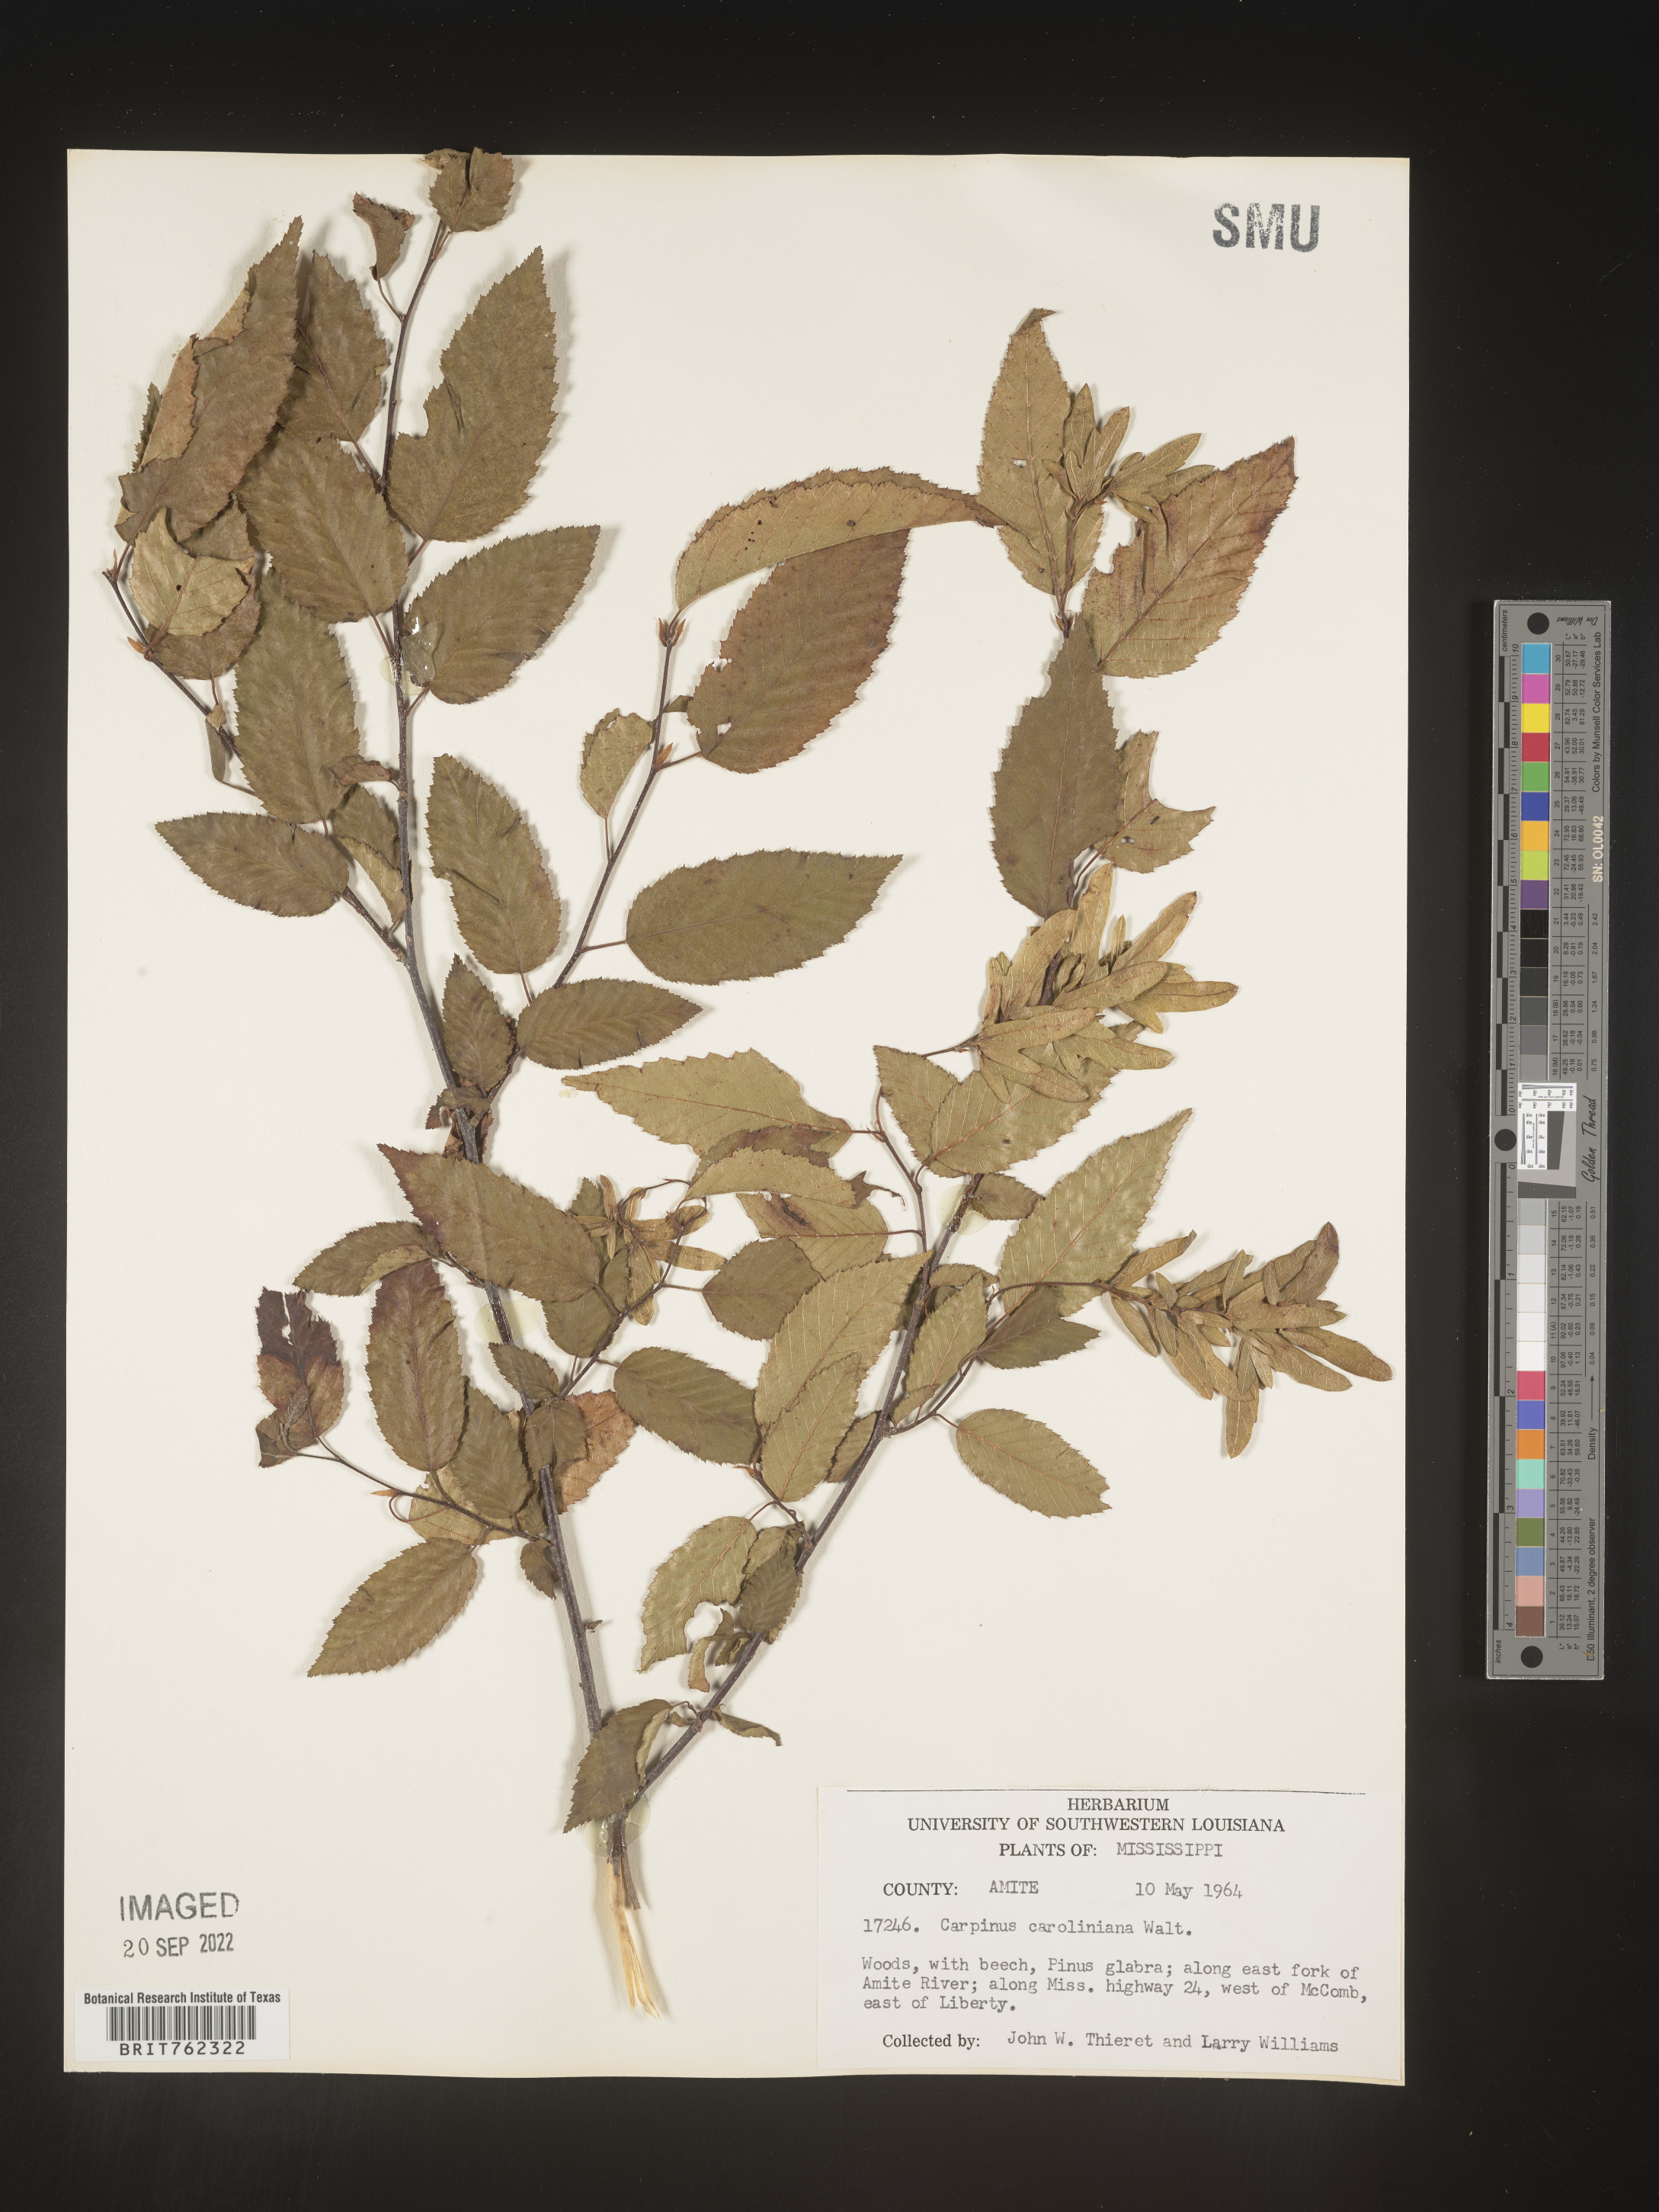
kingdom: Plantae
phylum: Tracheophyta
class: Magnoliopsida
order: Fagales
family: Betulaceae
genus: Carpinus
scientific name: Carpinus caroliniana
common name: American hornbeam
